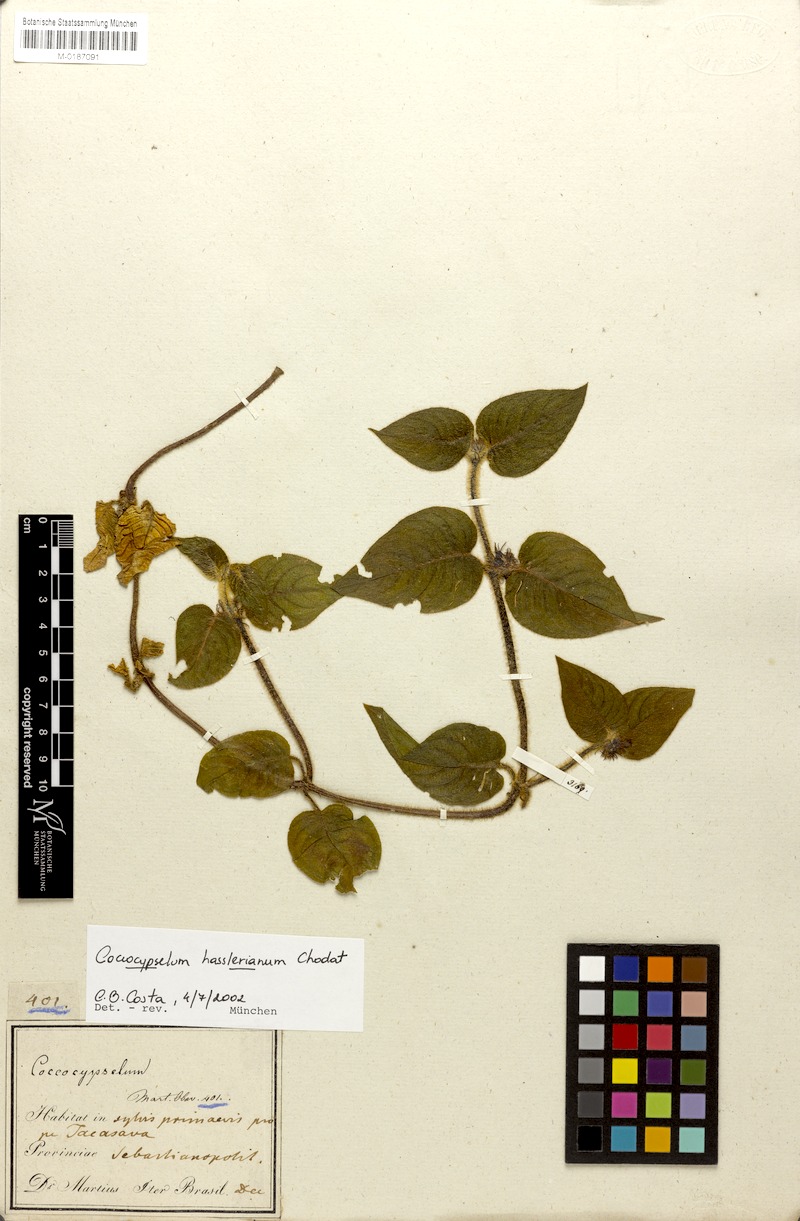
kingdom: Plantae
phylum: Tracheophyta
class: Magnoliopsida
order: Gentianales
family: Rubiaceae
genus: Coccocypselum
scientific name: Coccocypselum hasslerianum
